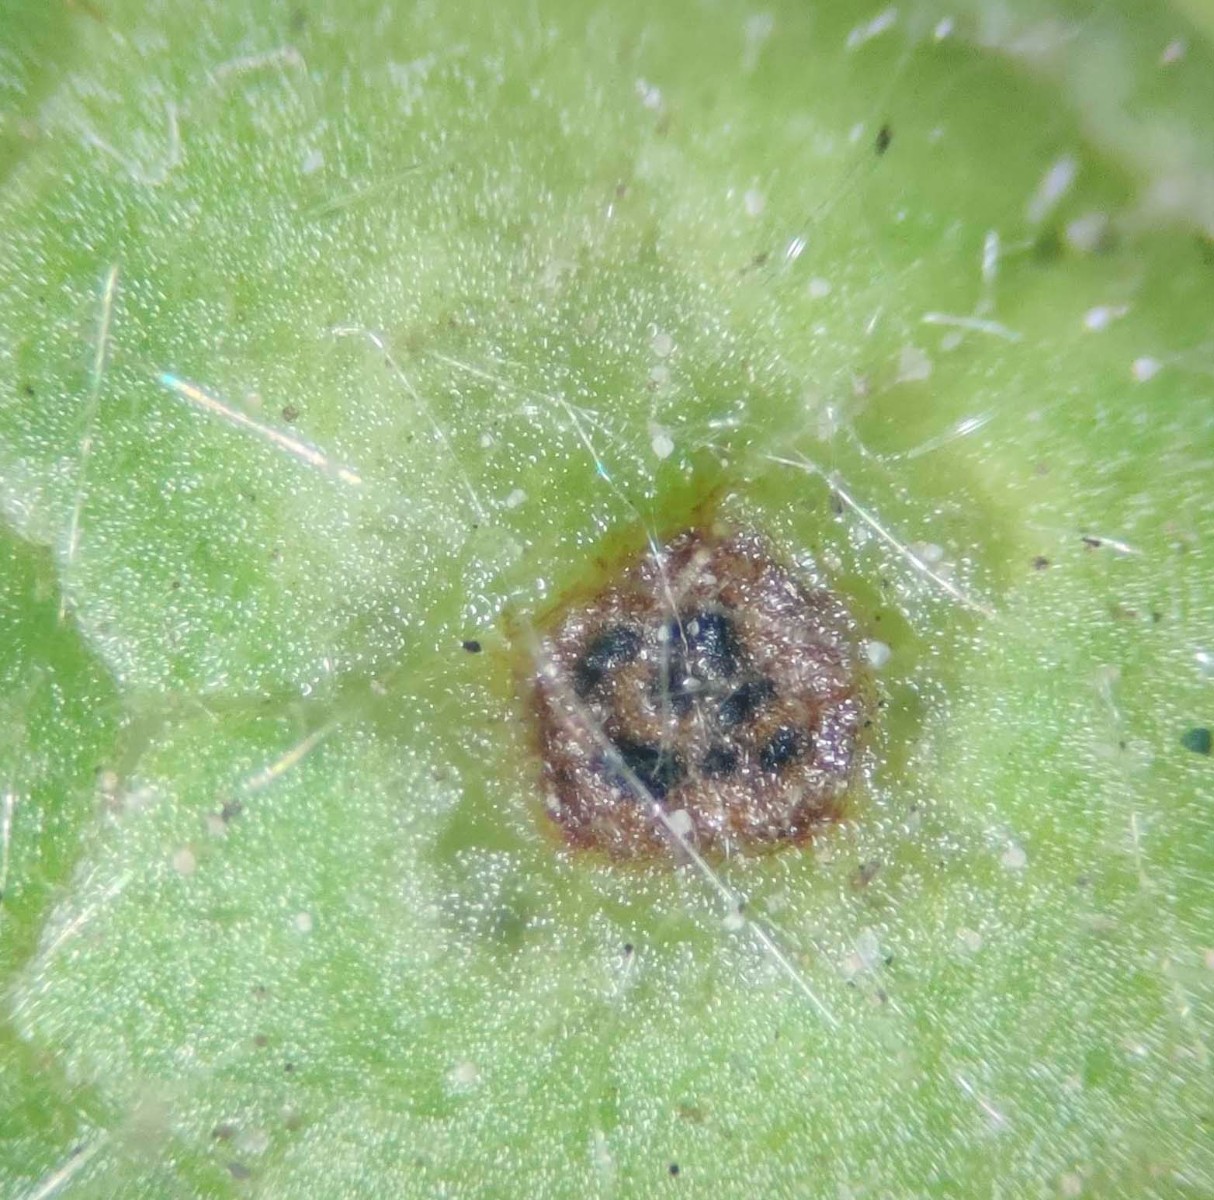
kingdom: Fungi
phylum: Ascomycota
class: Dothideomycetes
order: Venturiales
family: Venturiaceae
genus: Venturia
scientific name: Venturia maculiformis
